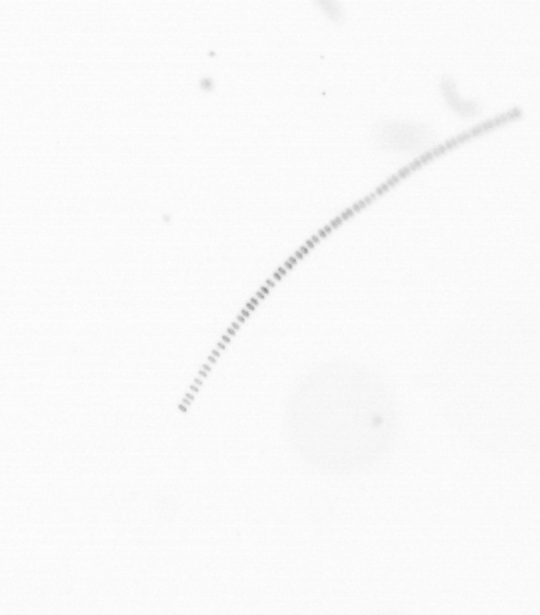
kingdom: Chromista
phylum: Ochrophyta
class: Bacillariophyceae
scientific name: Bacillariophyceae
